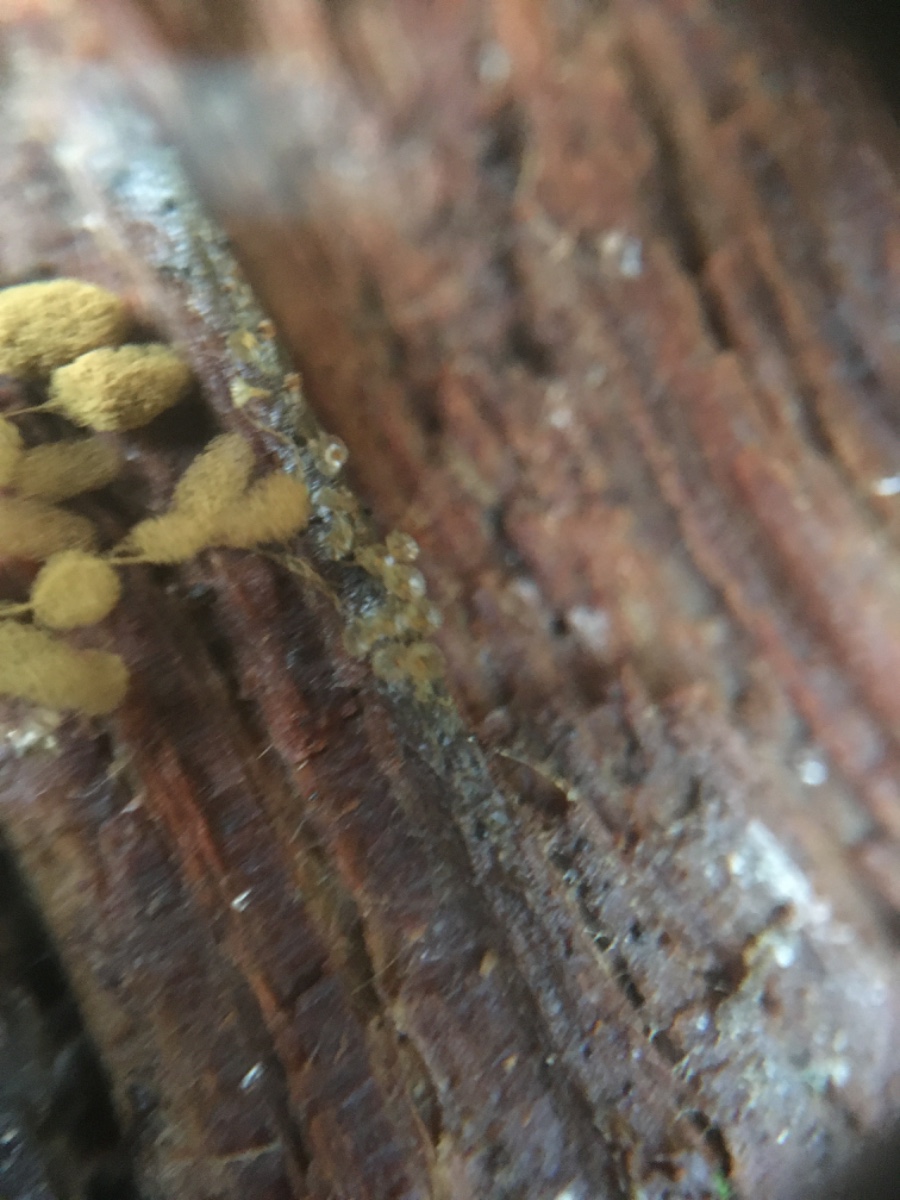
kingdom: Protozoa
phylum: Amoebozoa
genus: Arcyria
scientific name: Arcyria
